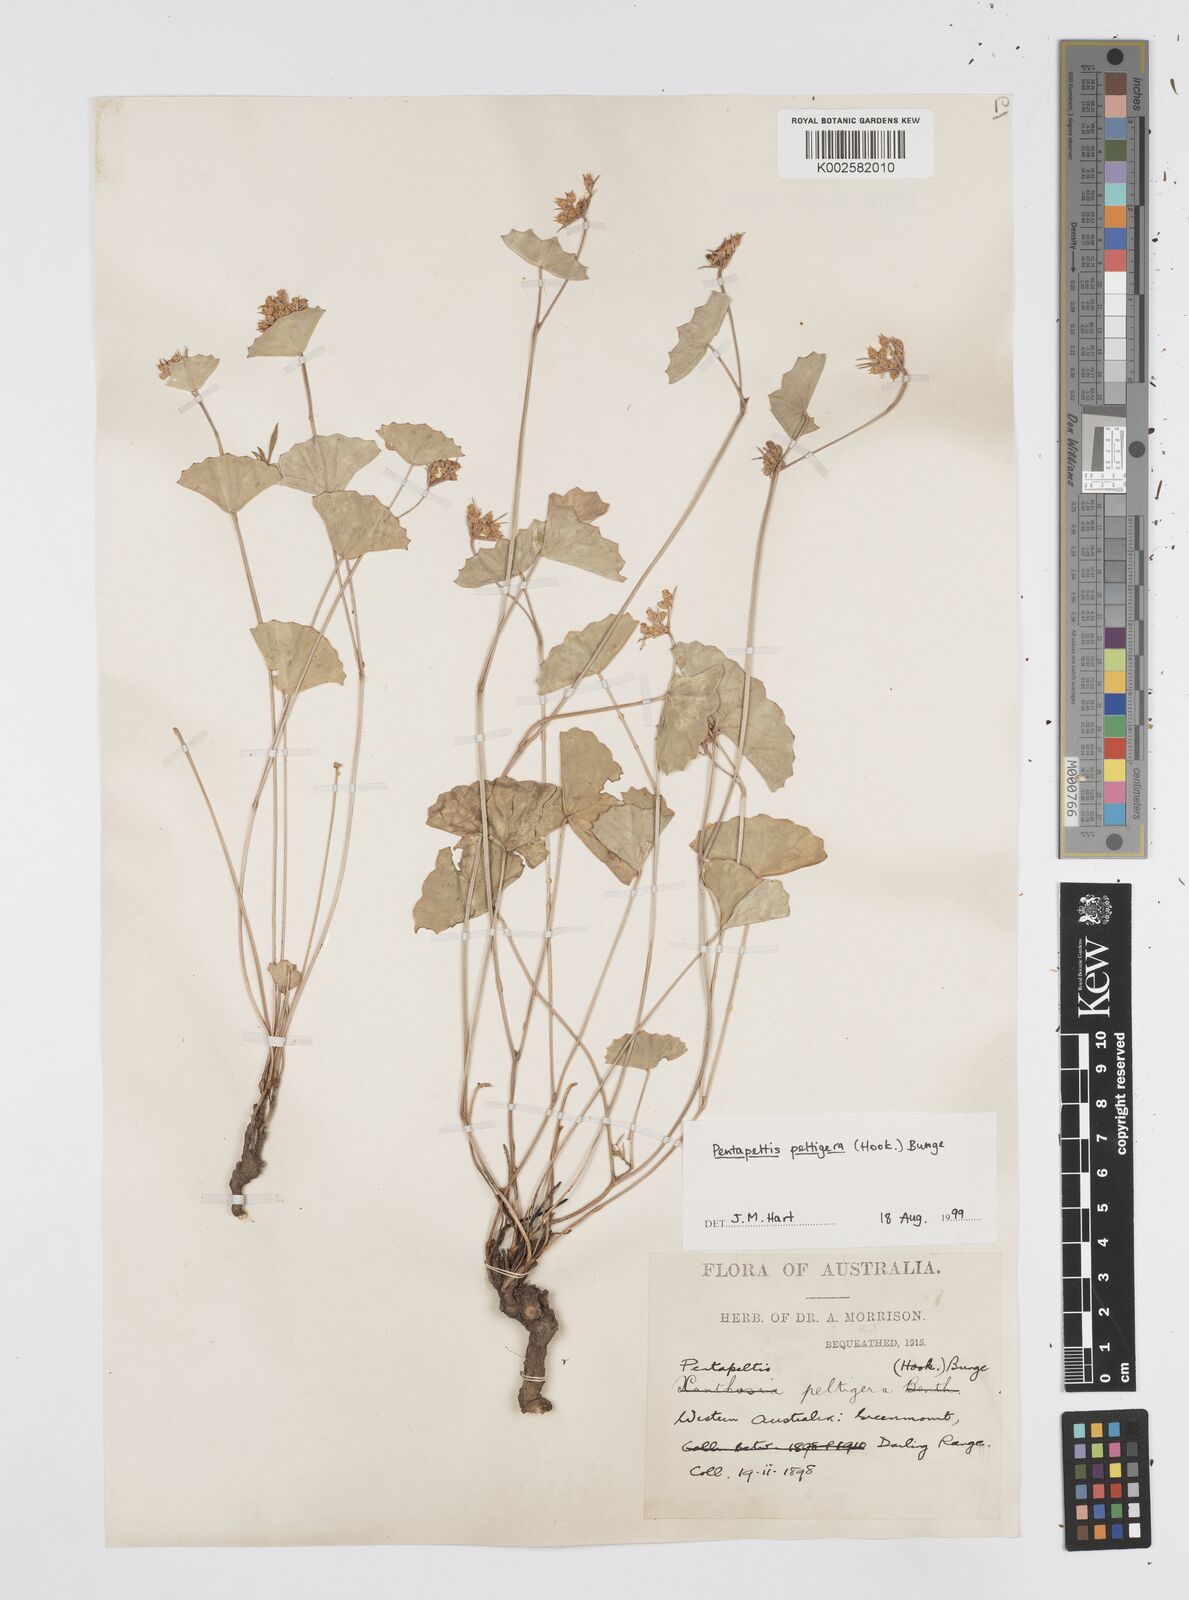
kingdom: Plantae
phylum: Tracheophyta
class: Magnoliopsida
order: Apiales
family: Apiaceae
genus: Pentapeltis
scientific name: Pentapeltis peltigera
